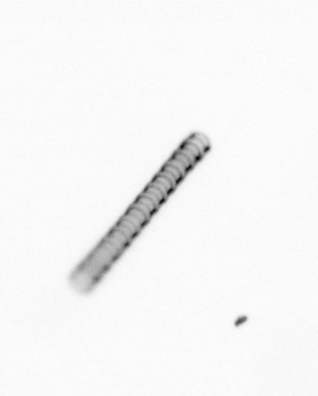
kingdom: Chromista
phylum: Ochrophyta
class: Bacillariophyceae
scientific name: Bacillariophyceae
